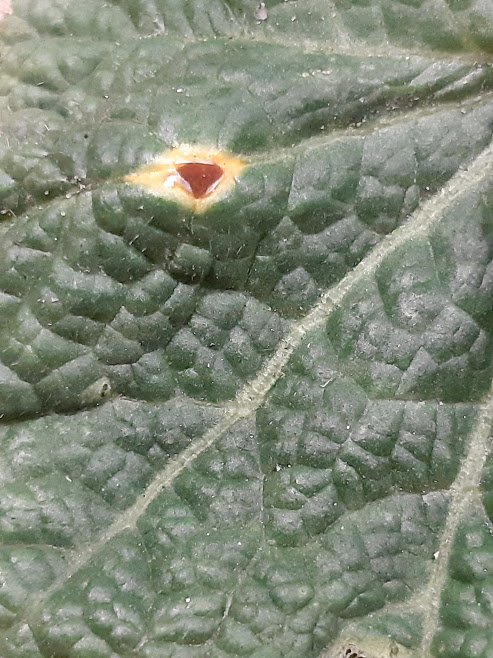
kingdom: Fungi
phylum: Basidiomycota
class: Pucciniomycetes
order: Pucciniales
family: Pucciniaceae
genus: Puccinia
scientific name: Puccinia malvacearum
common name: stokrose-tvecellerust
